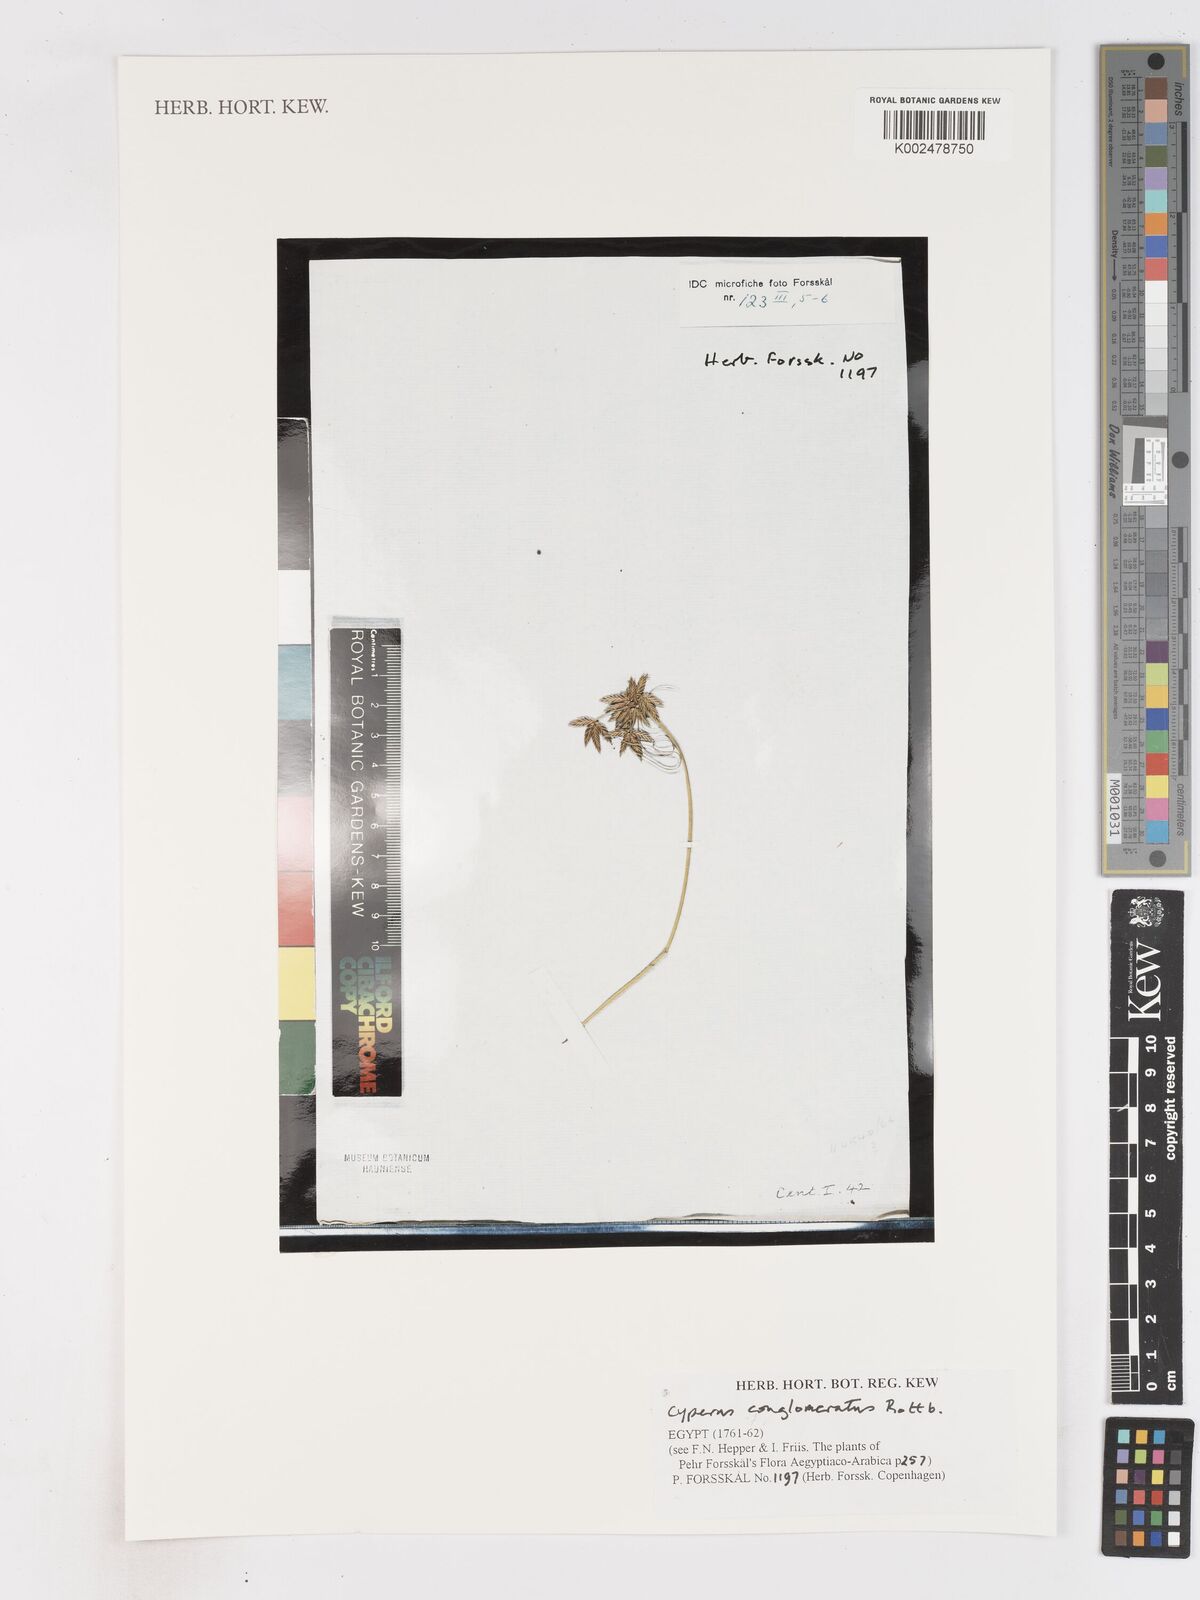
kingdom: Plantae
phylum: Tracheophyta
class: Liliopsida
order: Poales
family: Cyperaceae
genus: Cyperus
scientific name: Cyperus conglomeratus
